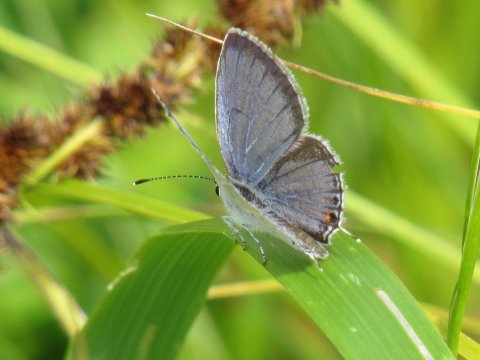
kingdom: Animalia
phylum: Arthropoda
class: Insecta
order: Lepidoptera
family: Lycaenidae
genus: Elkalyce
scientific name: Elkalyce comyntas
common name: Eastern Tailed-Blue
